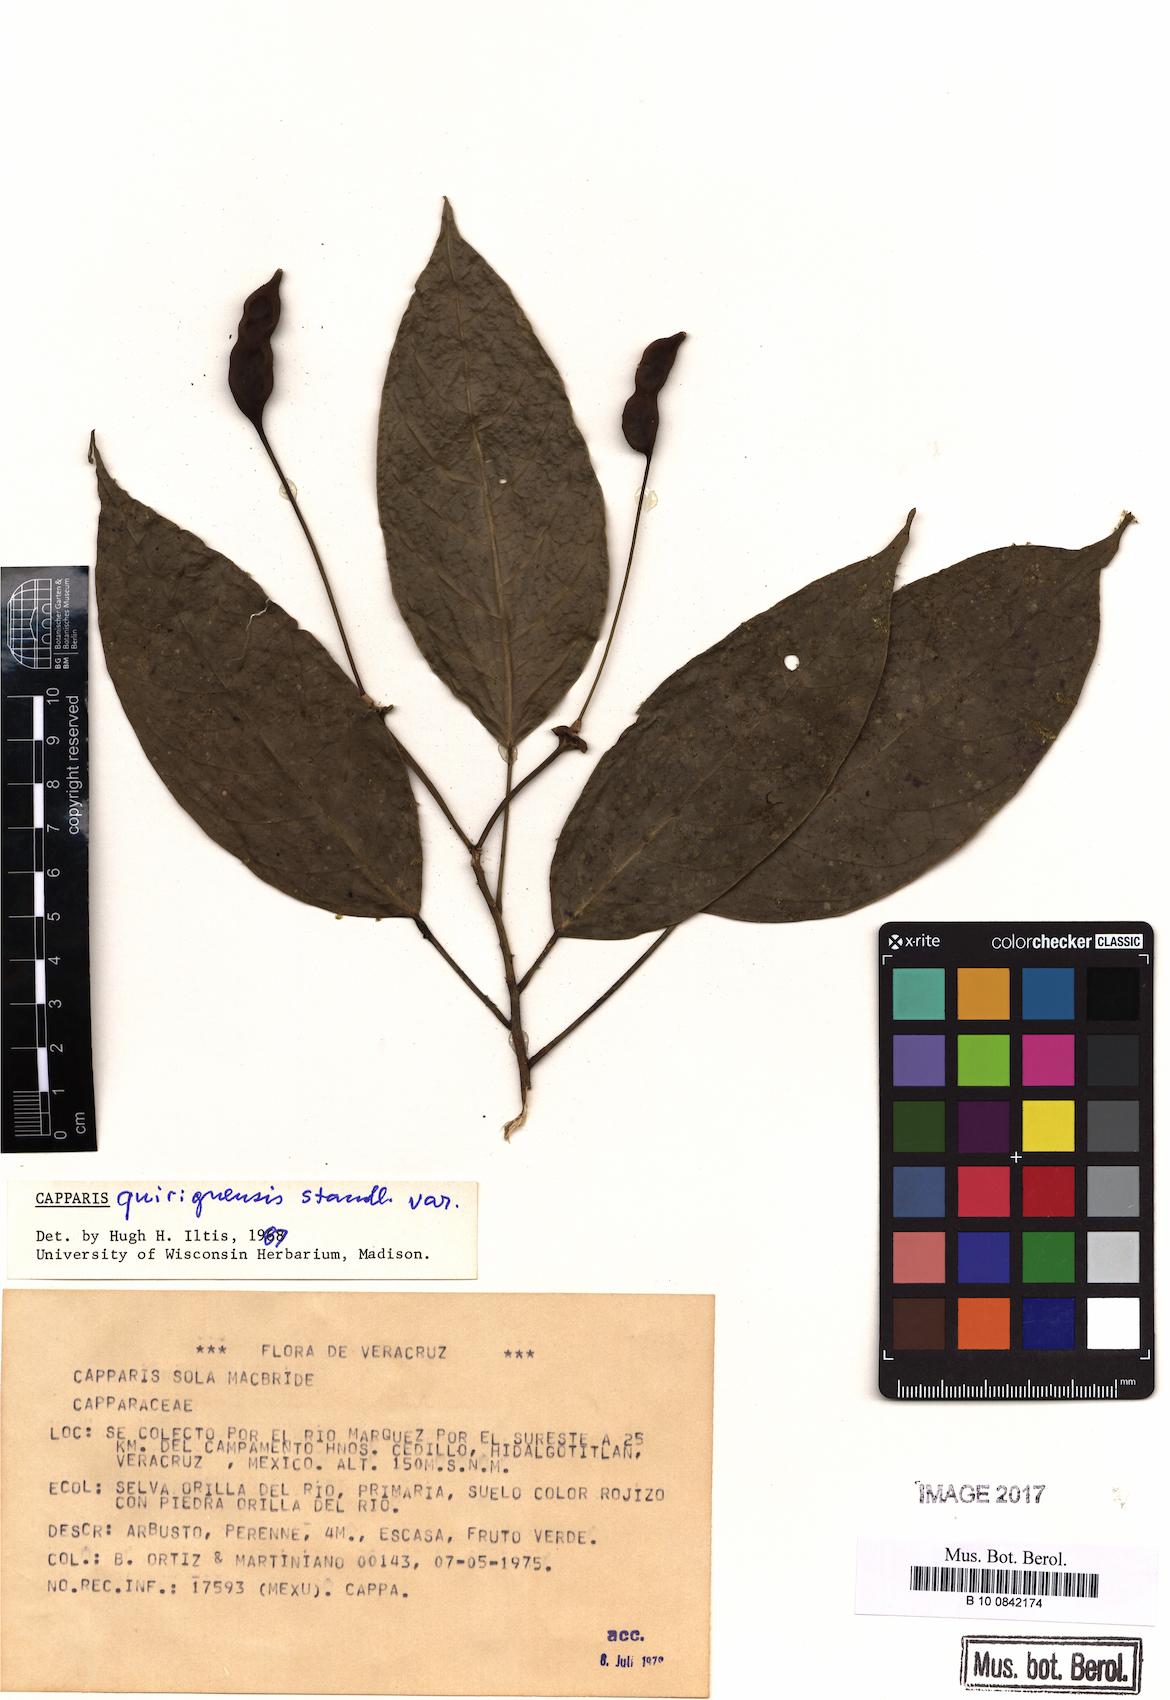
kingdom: Plantae
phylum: Tracheophyta
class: Magnoliopsida
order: Brassicales
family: Capparaceae
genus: Capparidastrum
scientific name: Capparidastrum quiriguense
